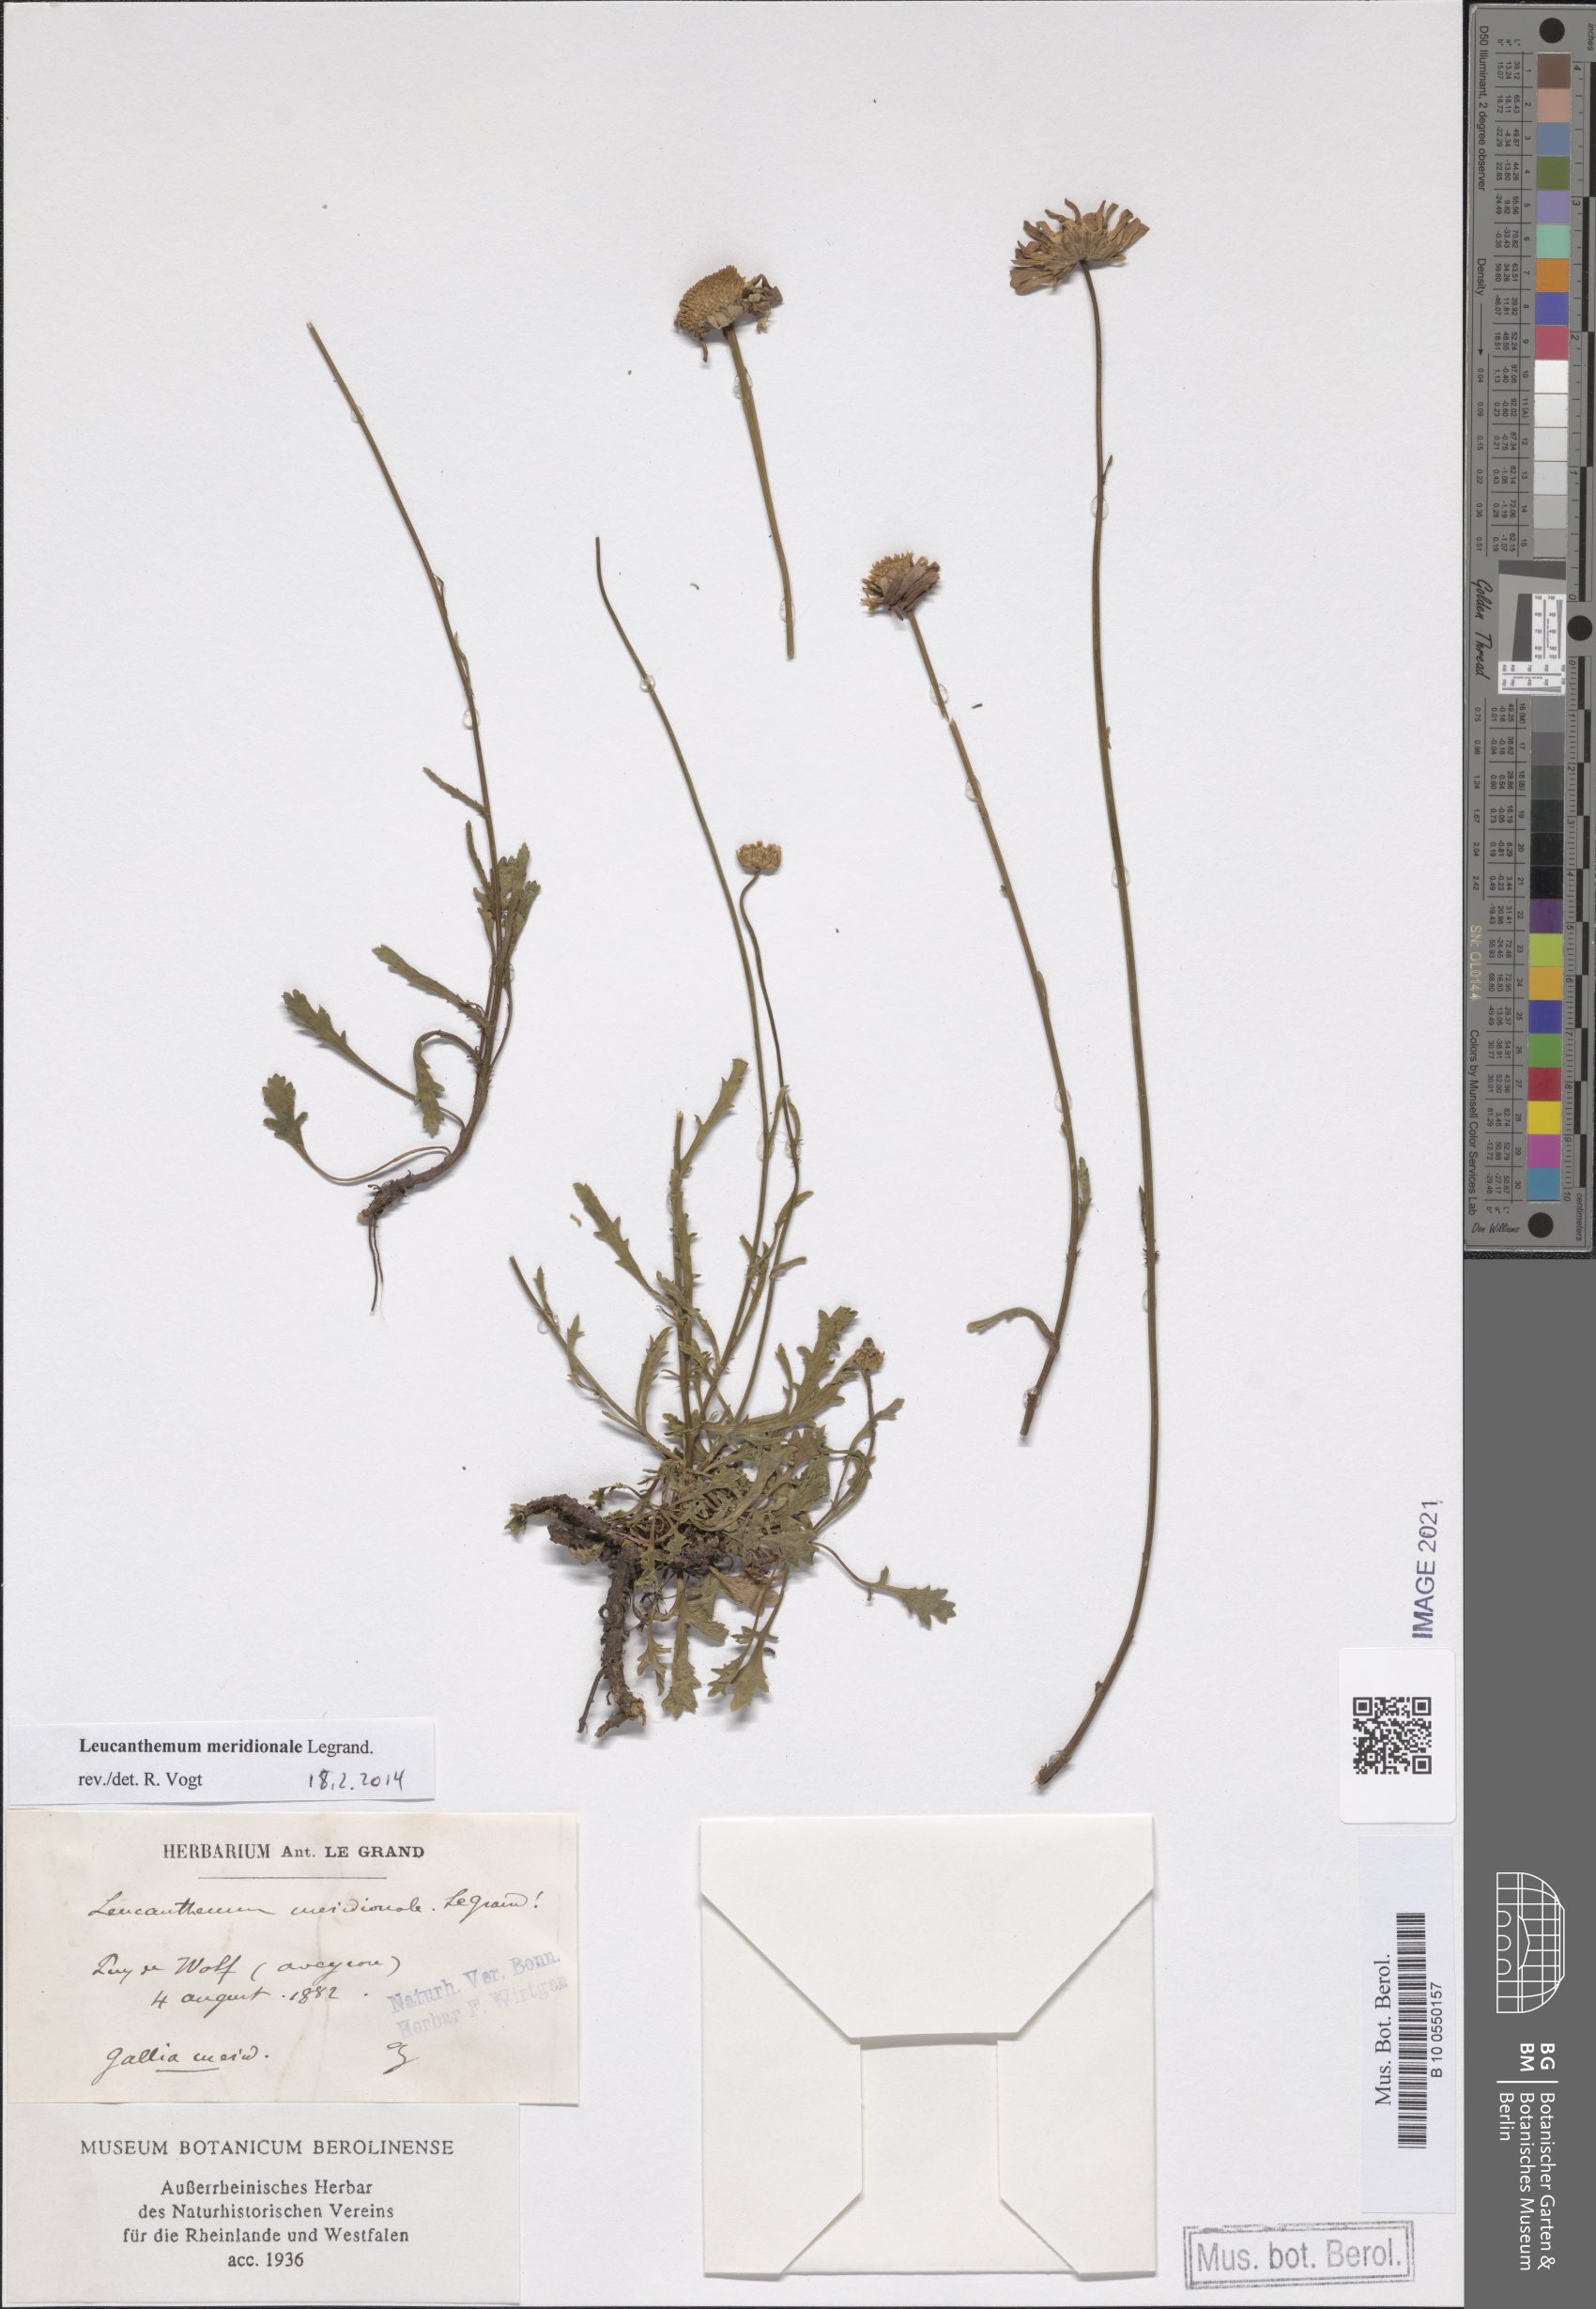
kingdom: Plantae
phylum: Tracheophyta
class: Magnoliopsida
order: Asterales
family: Asteraceae
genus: Leucanthemum
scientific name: Leucanthemum meridionale
